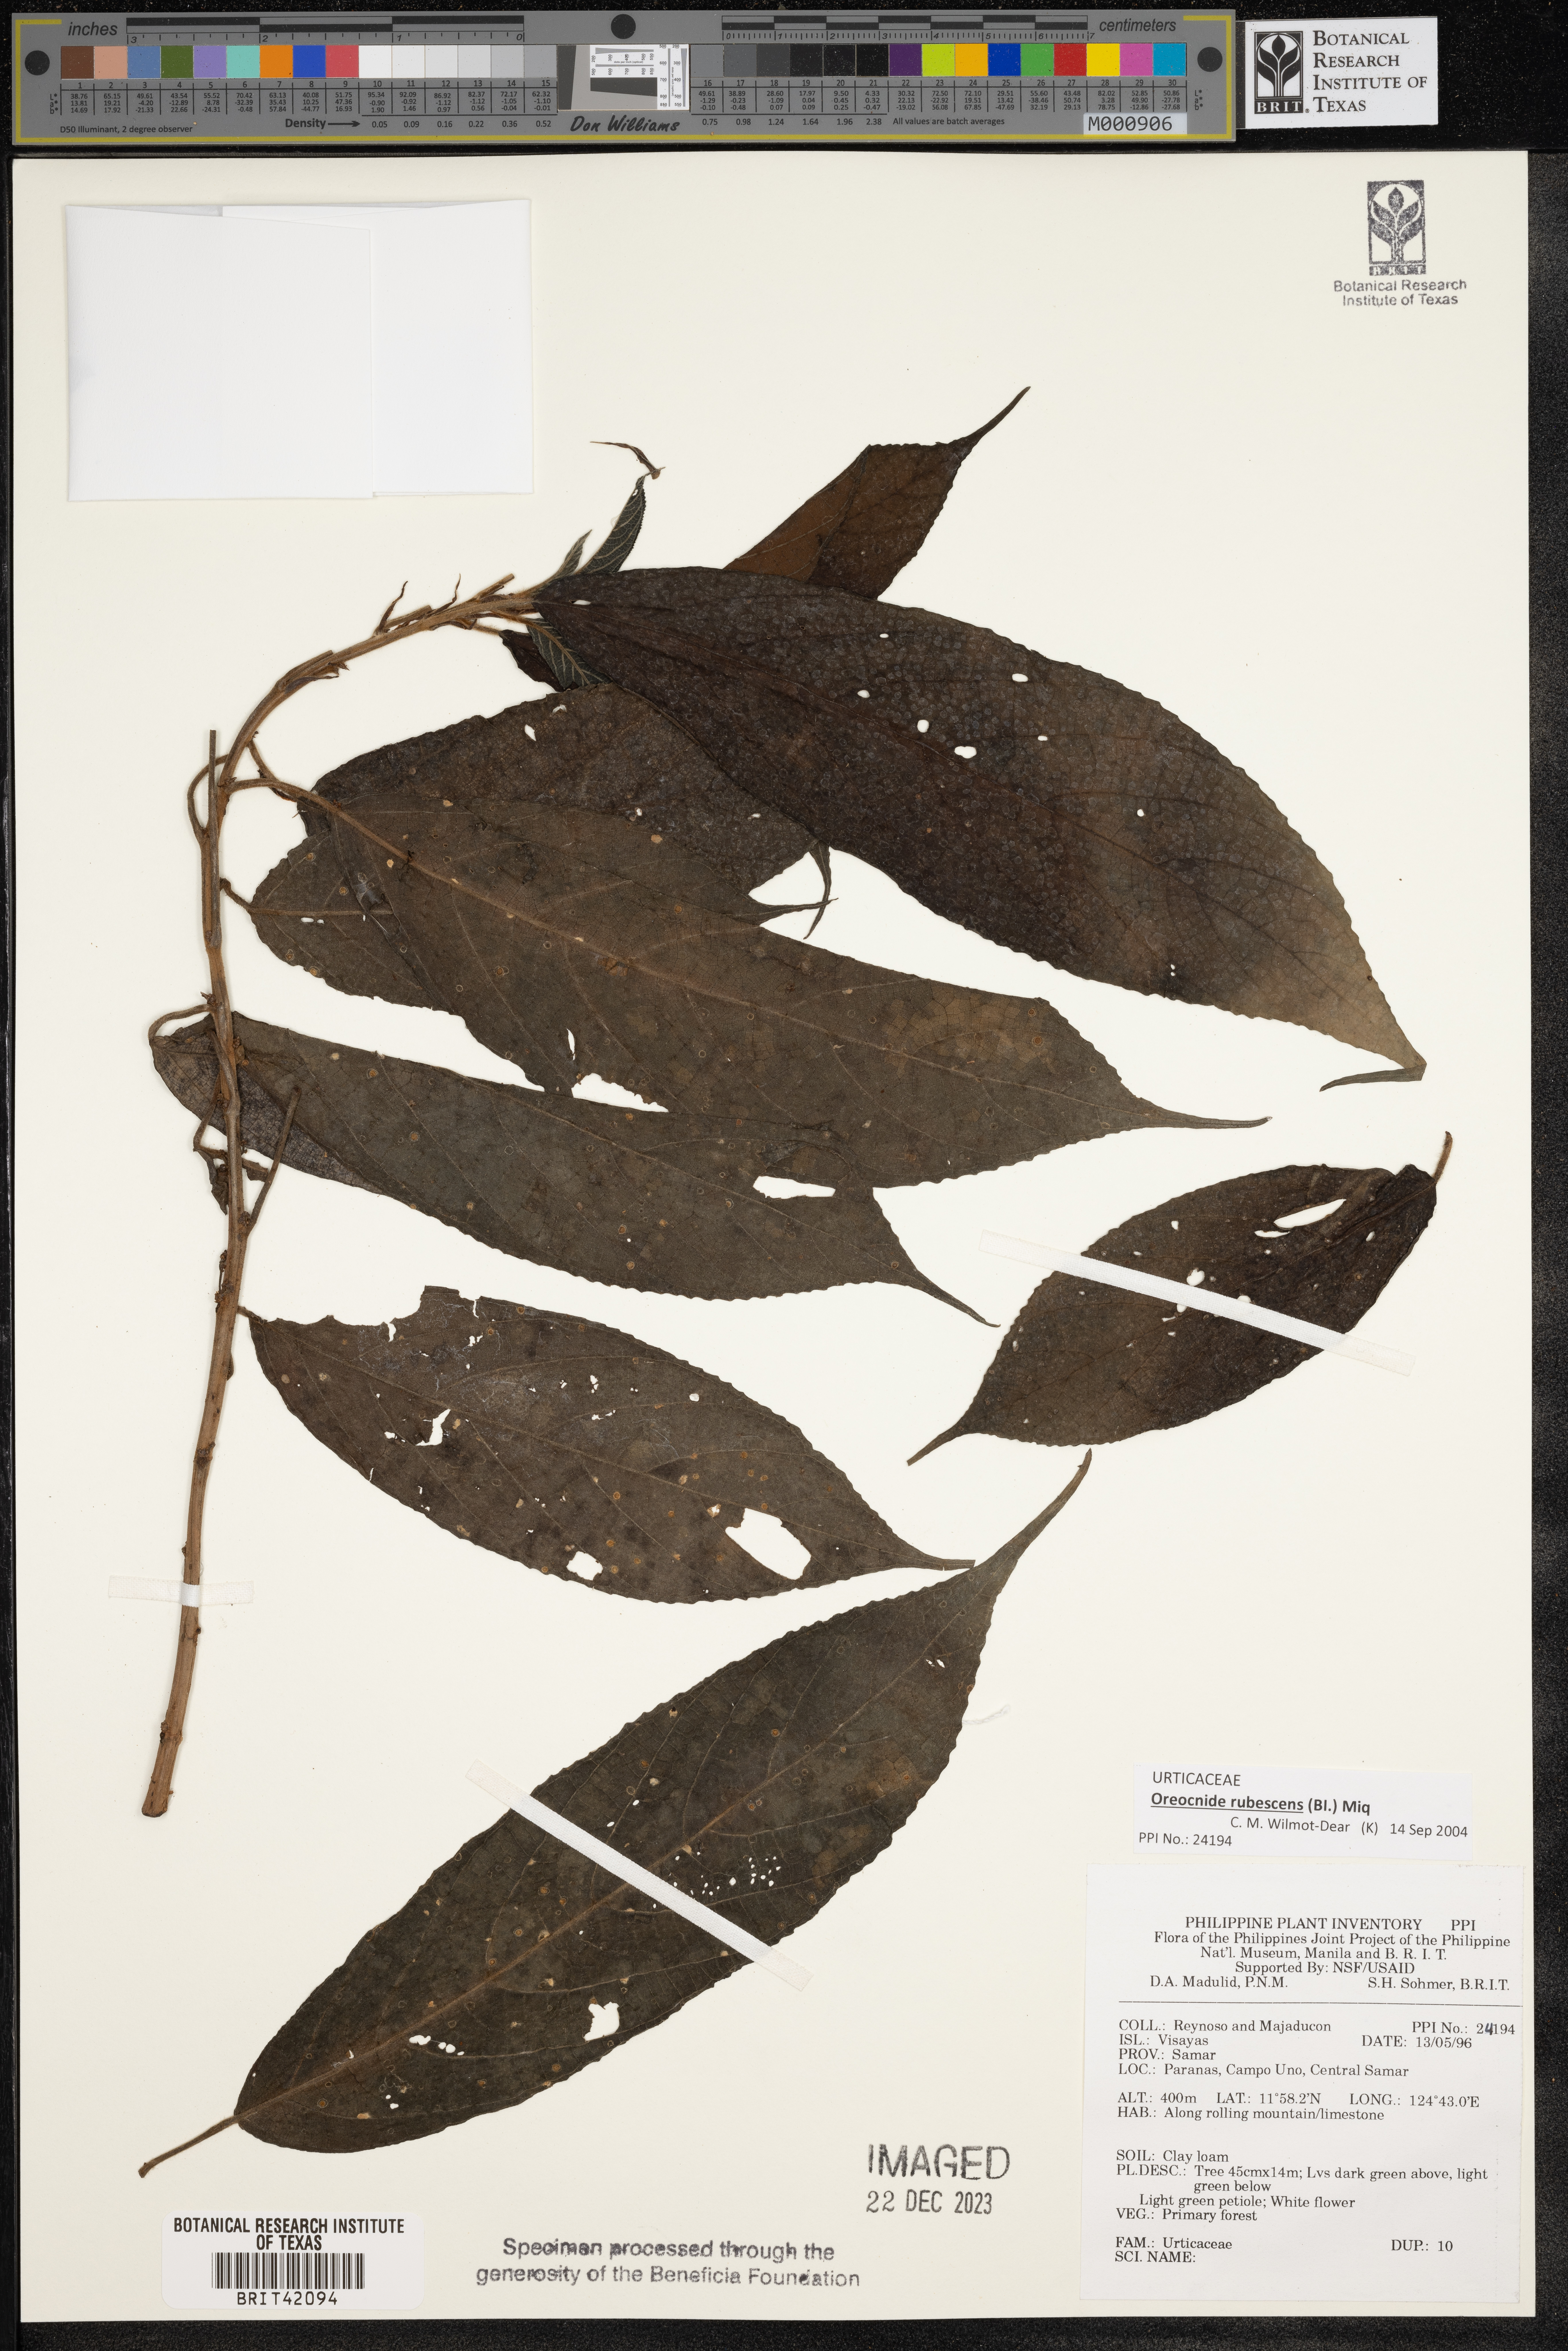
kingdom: Plantae
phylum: Tracheophyta
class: Magnoliopsida
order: Rosales
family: Urticaceae
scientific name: Urticaceae
